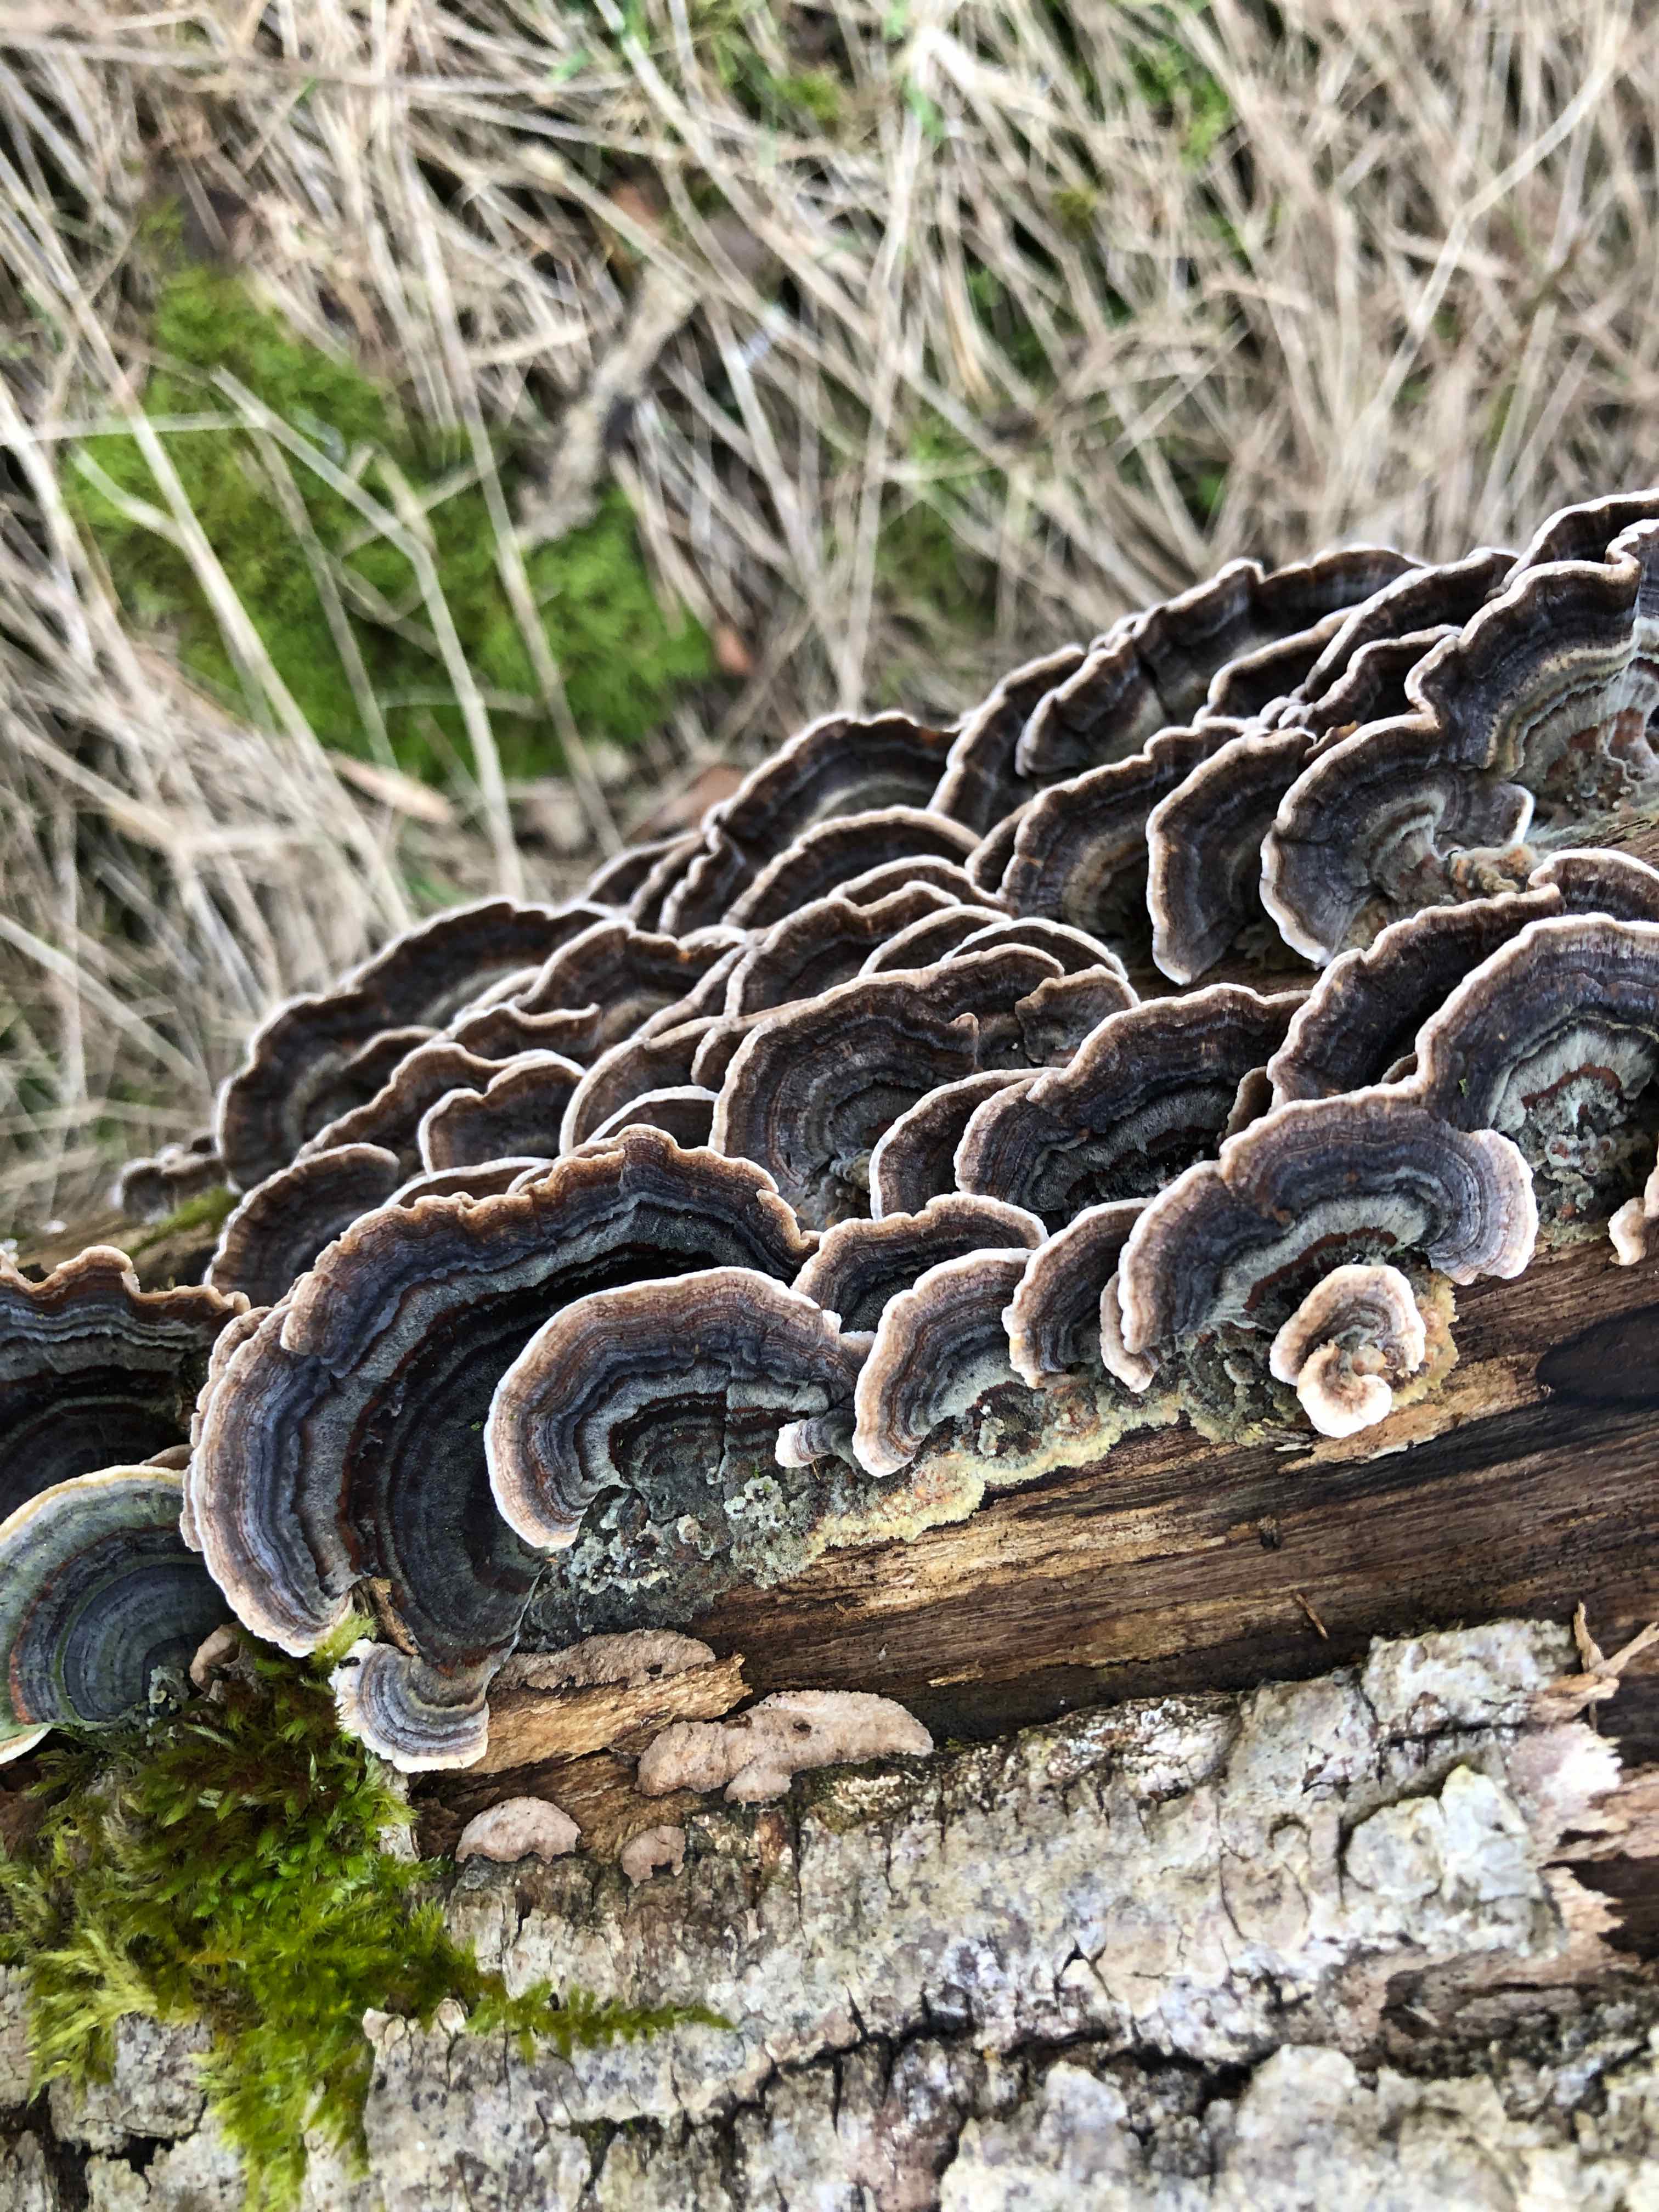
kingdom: Fungi
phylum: Basidiomycota
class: Agaricomycetes
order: Polyporales
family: Polyporaceae
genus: Trametes
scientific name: Trametes versicolor
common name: broget læderporesvamp
